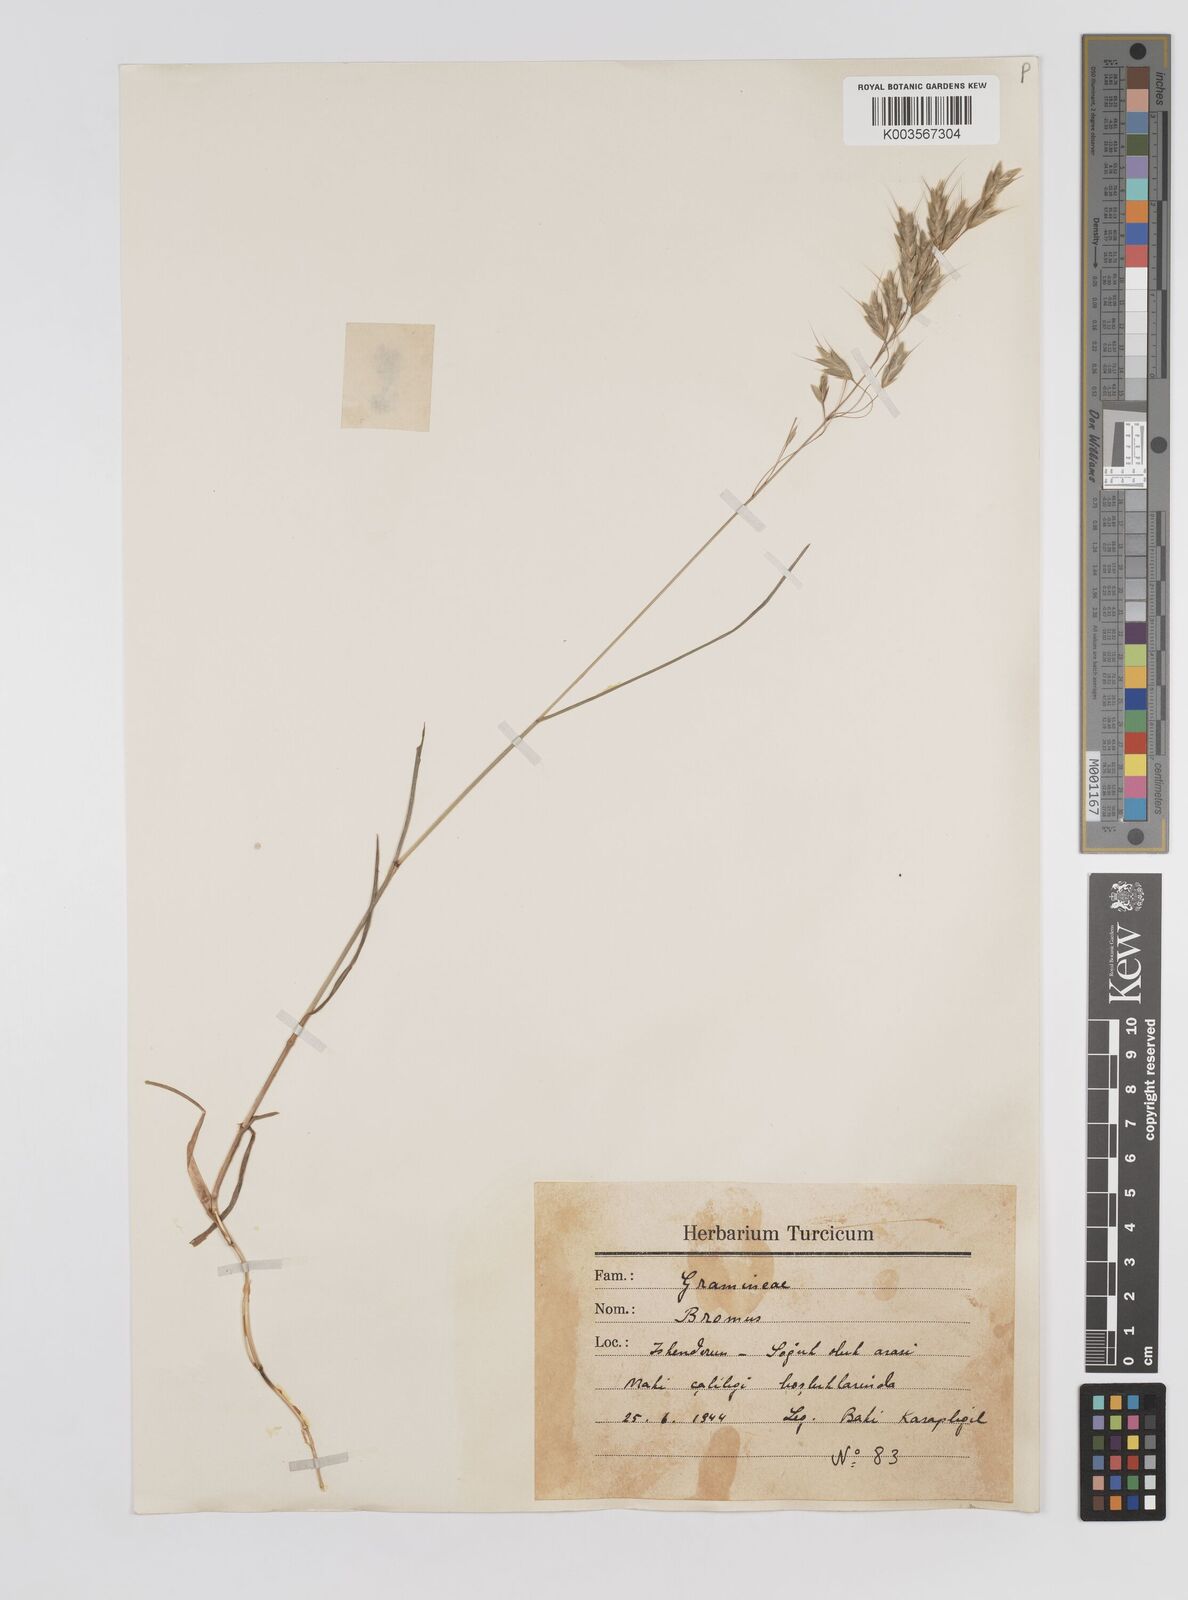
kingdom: Plantae
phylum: Tracheophyta
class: Liliopsida
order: Poales
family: Poaceae
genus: Bromus
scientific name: Bromus racemosus
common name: Bald brome
